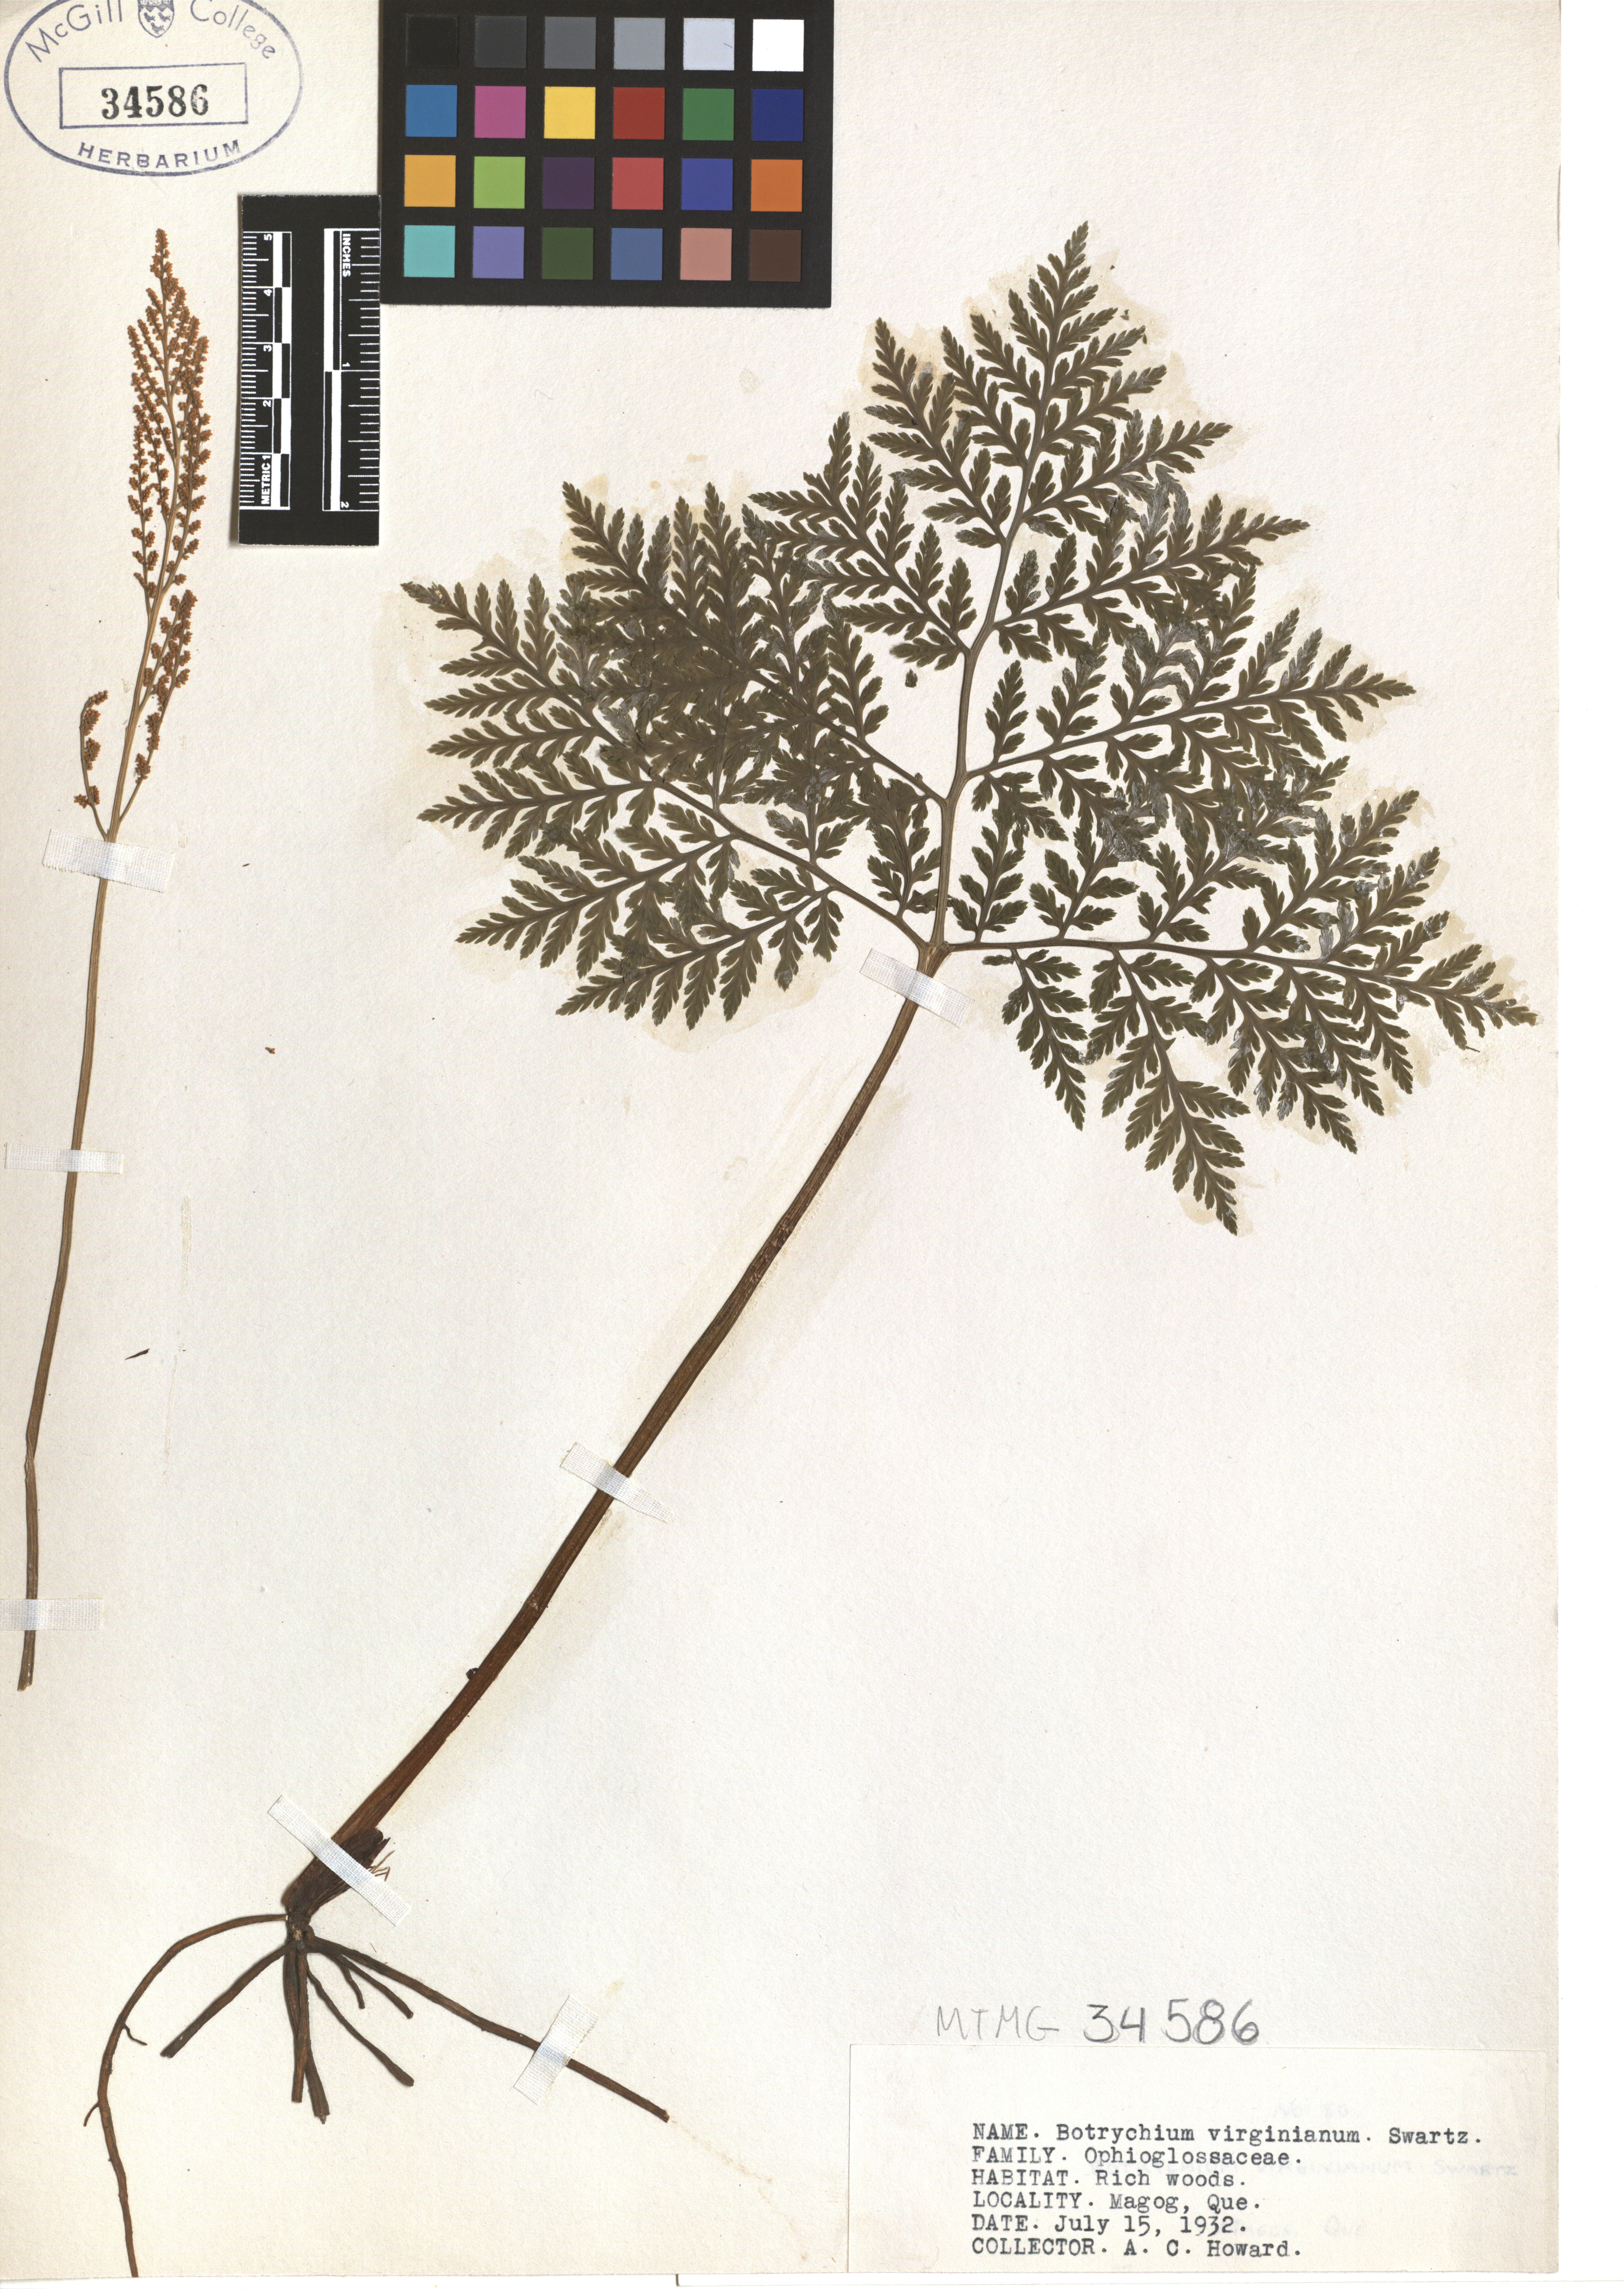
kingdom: Plantae
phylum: Tracheophyta
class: Polypodiopsida
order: Ophioglossales
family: Ophioglossaceae
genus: Botrypus
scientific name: Botrypus virginianus
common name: Common grapefern
